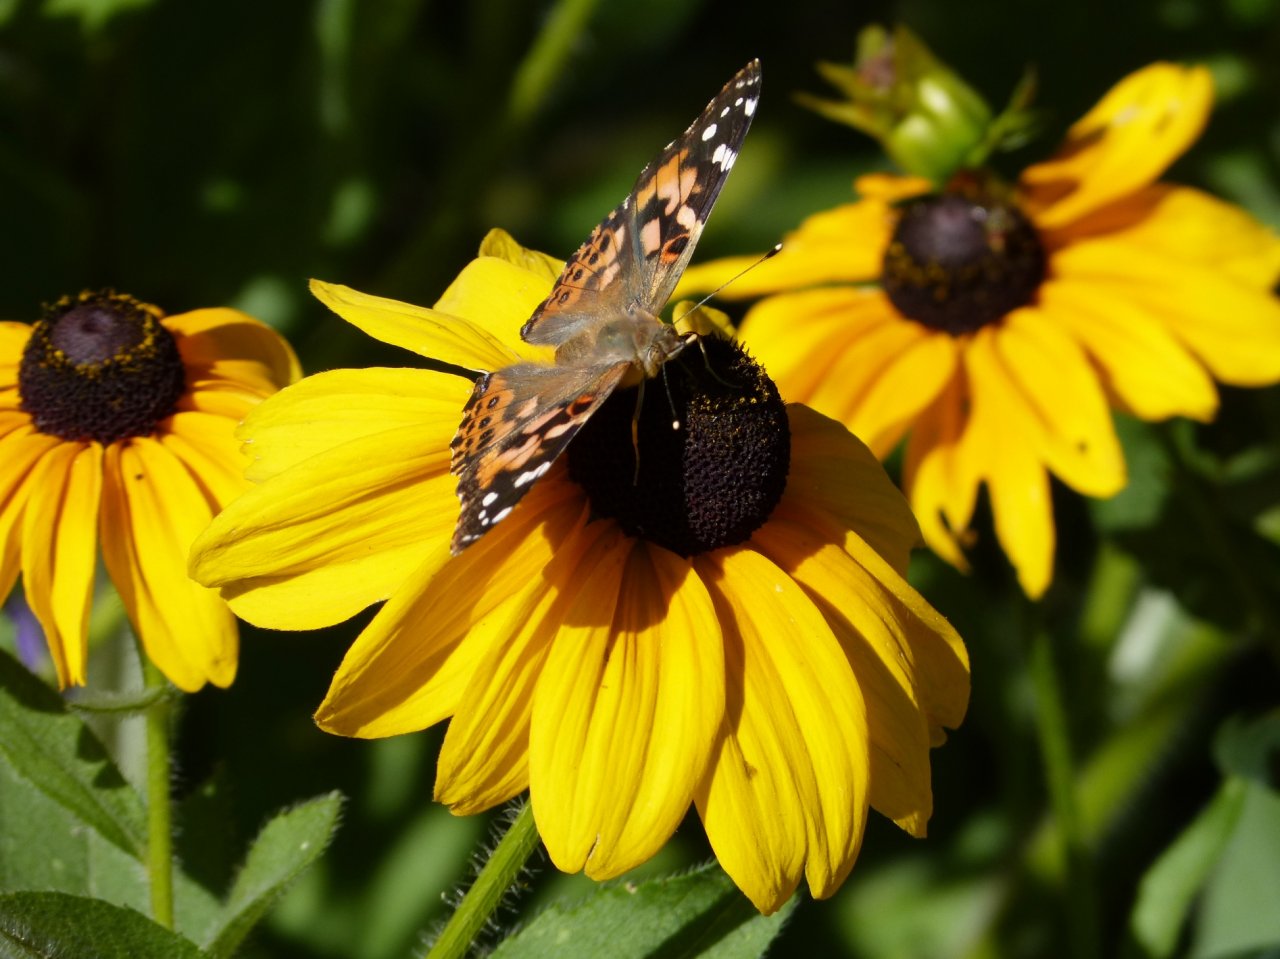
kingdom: Animalia
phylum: Arthropoda
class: Insecta
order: Lepidoptera
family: Nymphalidae
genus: Vanessa
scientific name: Vanessa cardui
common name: Painted Lady
